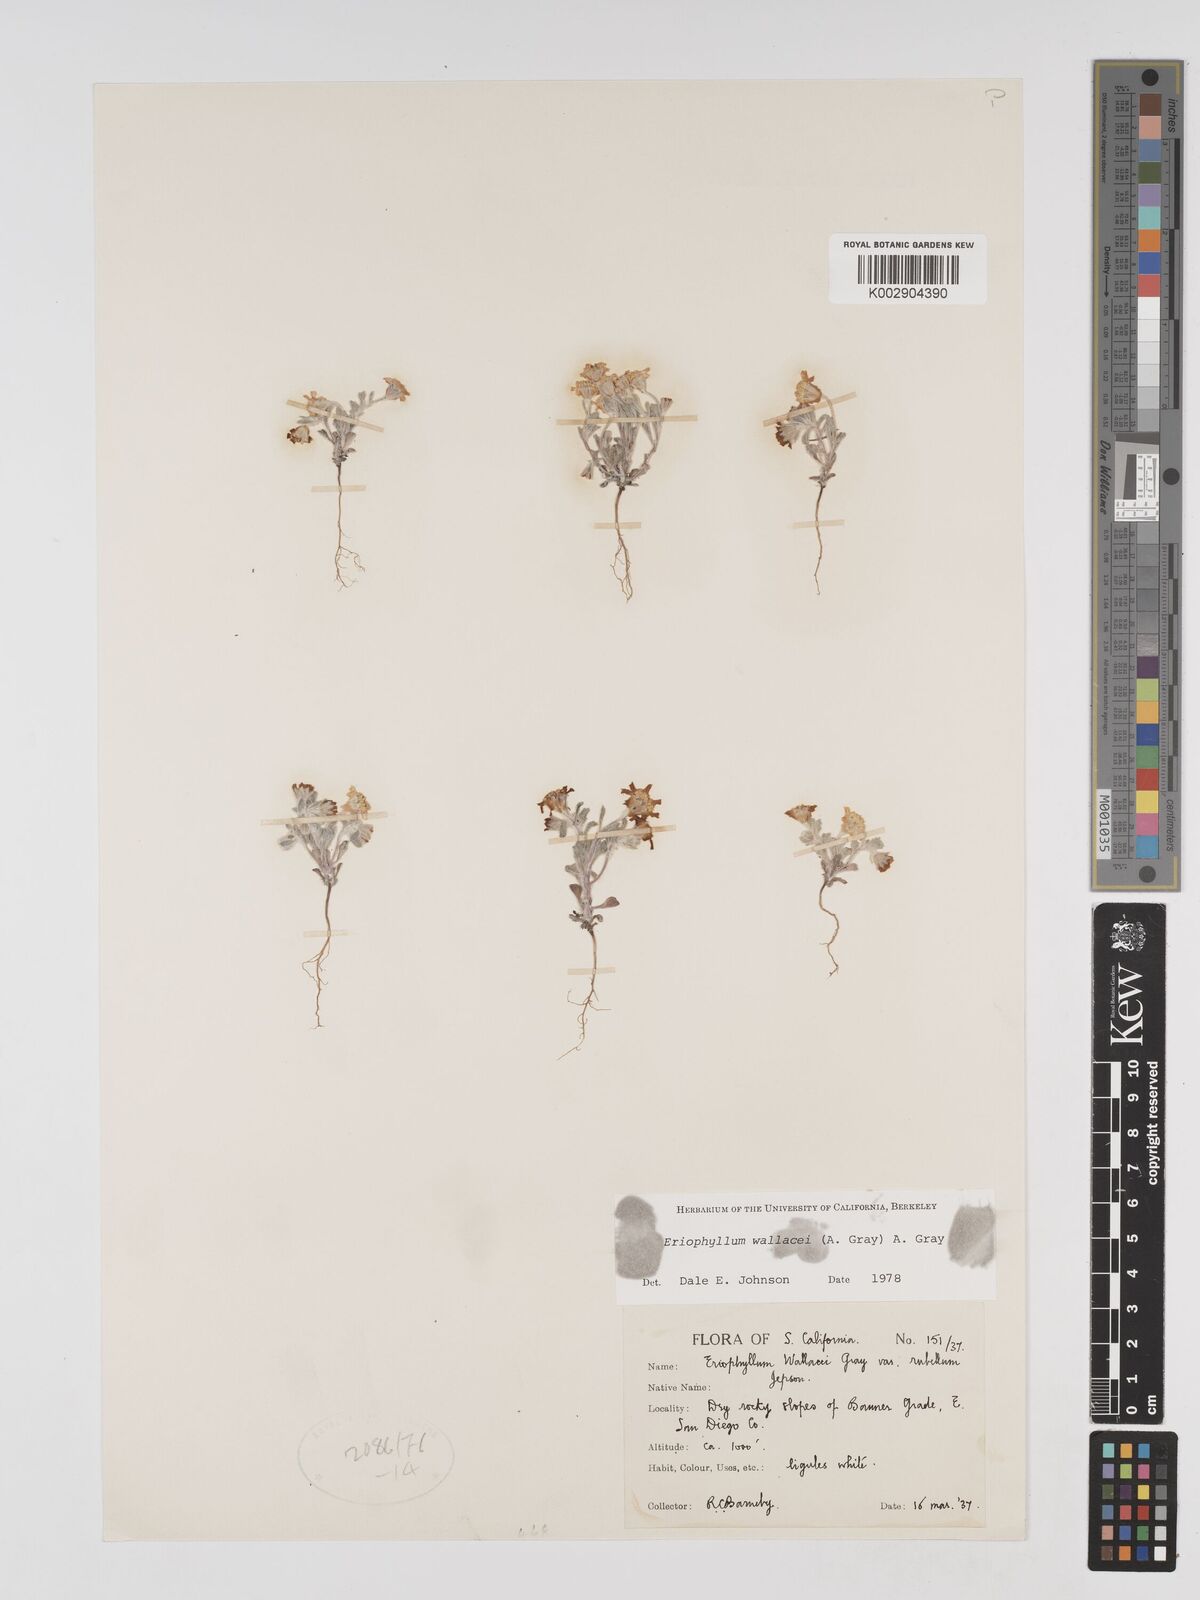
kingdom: Plantae
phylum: Tracheophyta
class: Magnoliopsida
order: Asterales
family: Asteraceae
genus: Eriophyllum
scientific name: Eriophyllum wallacei
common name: Wallace's woolly daisy
